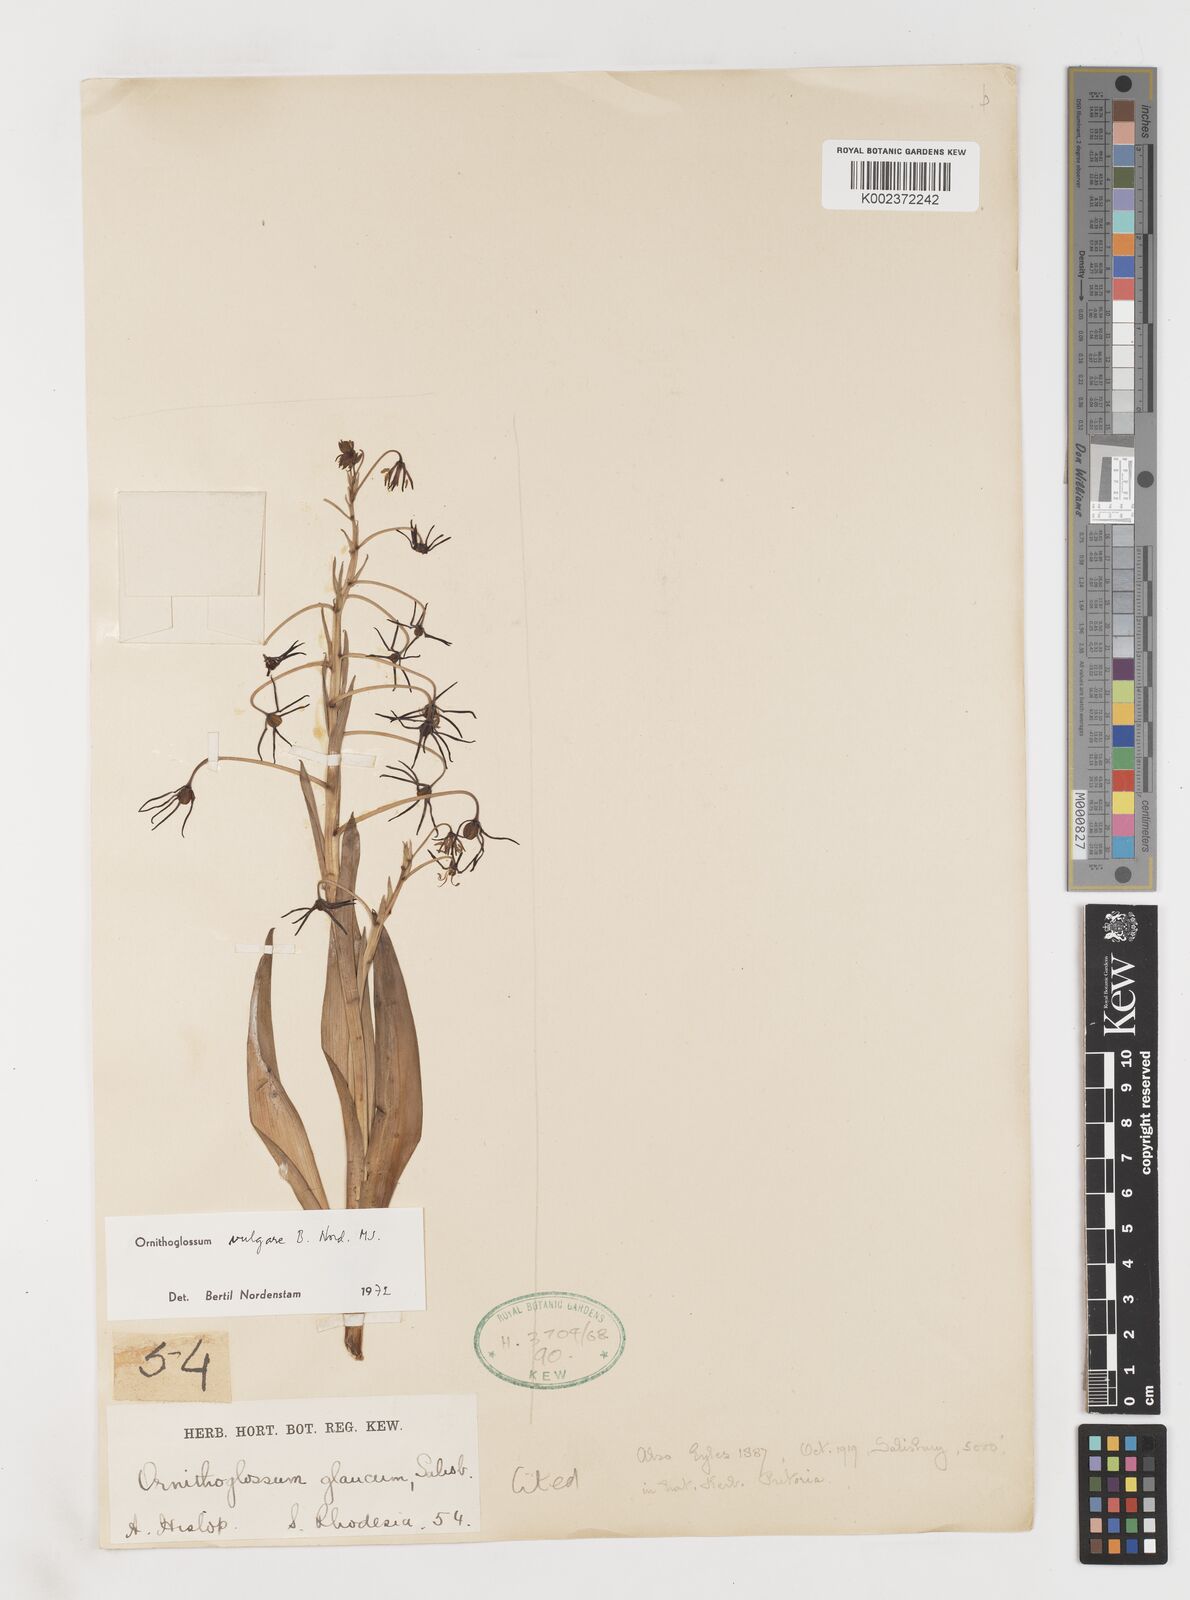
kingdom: Plantae
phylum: Tracheophyta
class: Liliopsida
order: Liliales
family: Colchicaceae
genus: Ornithoglossum
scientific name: Ornithoglossum vulgare
